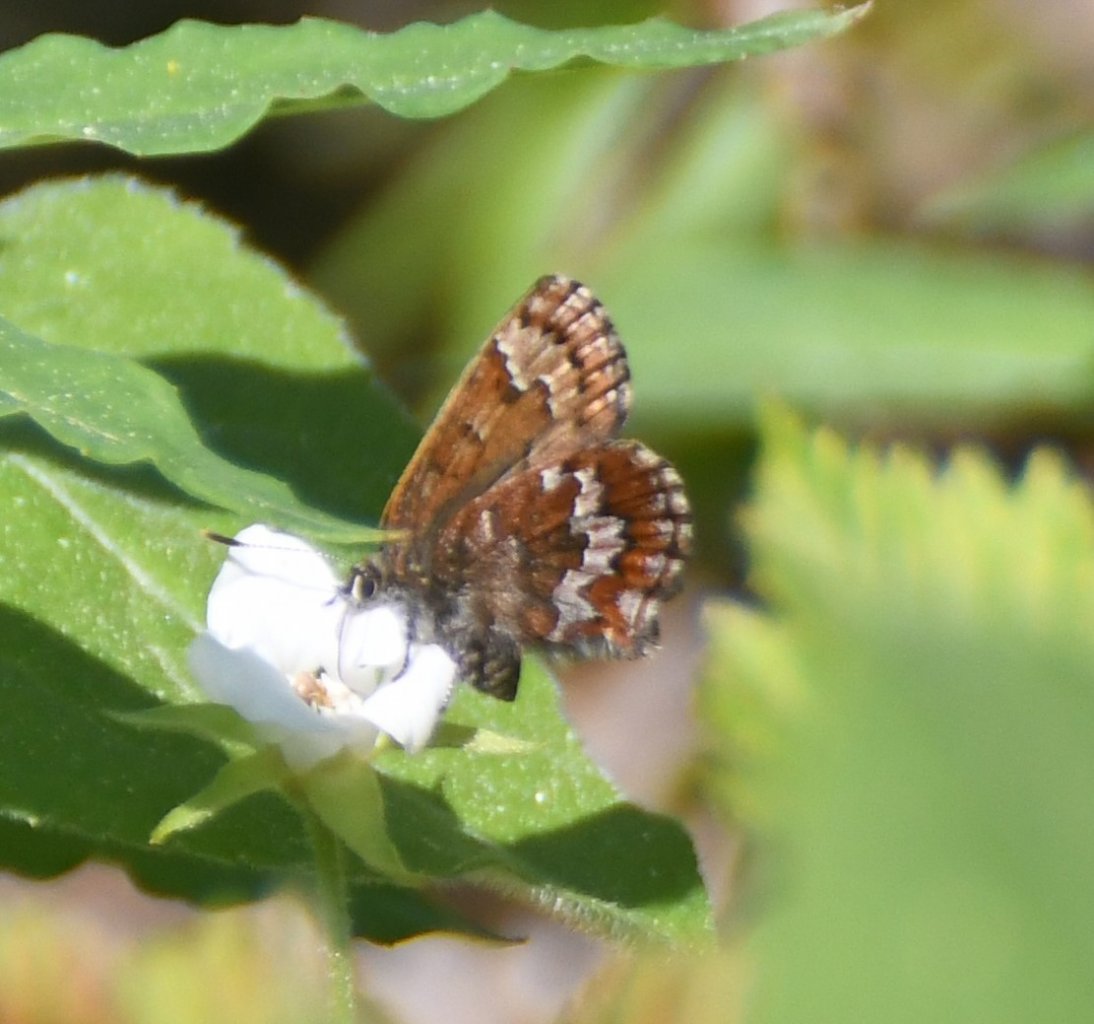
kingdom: Animalia
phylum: Arthropoda
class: Insecta
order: Lepidoptera
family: Lycaenidae
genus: Incisalia
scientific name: Incisalia niphon
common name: Eastern Pine Elfin
